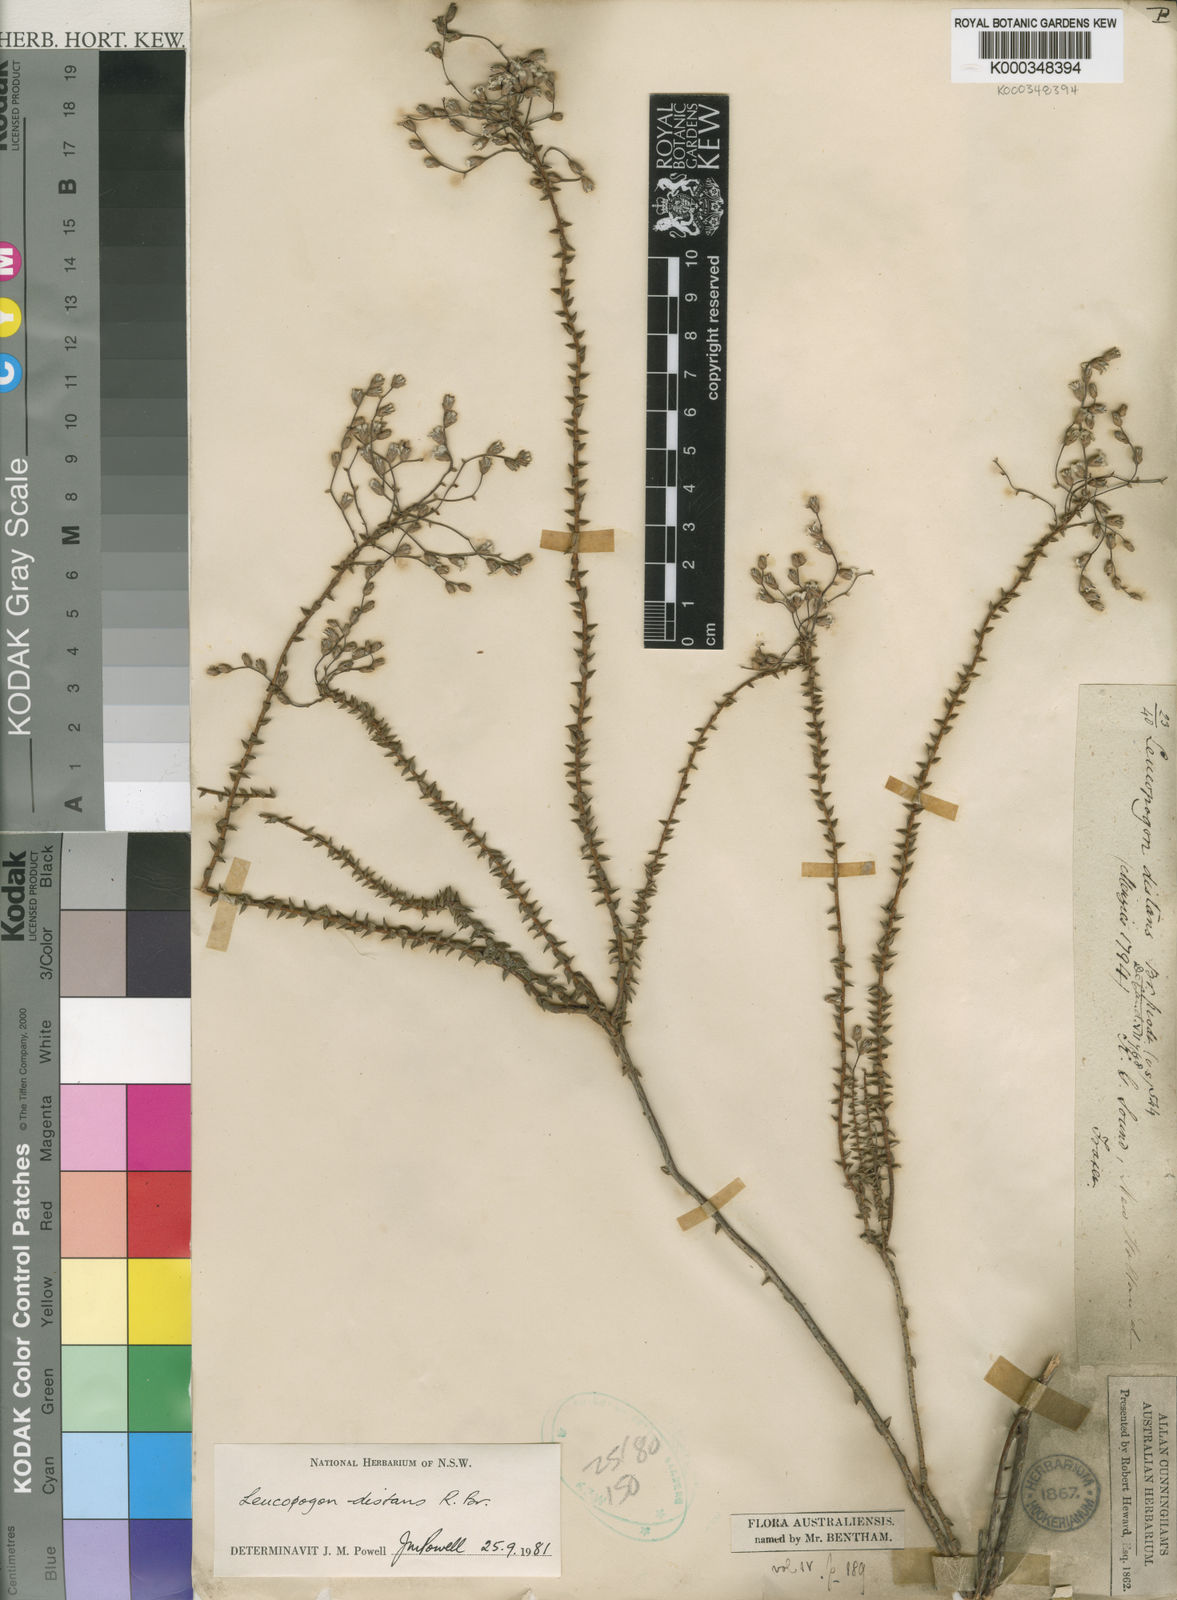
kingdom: Plantae
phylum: Tracheophyta
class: Magnoliopsida
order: Ericales
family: Ericaceae
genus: Leucopogon
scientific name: Leucopogon distans
